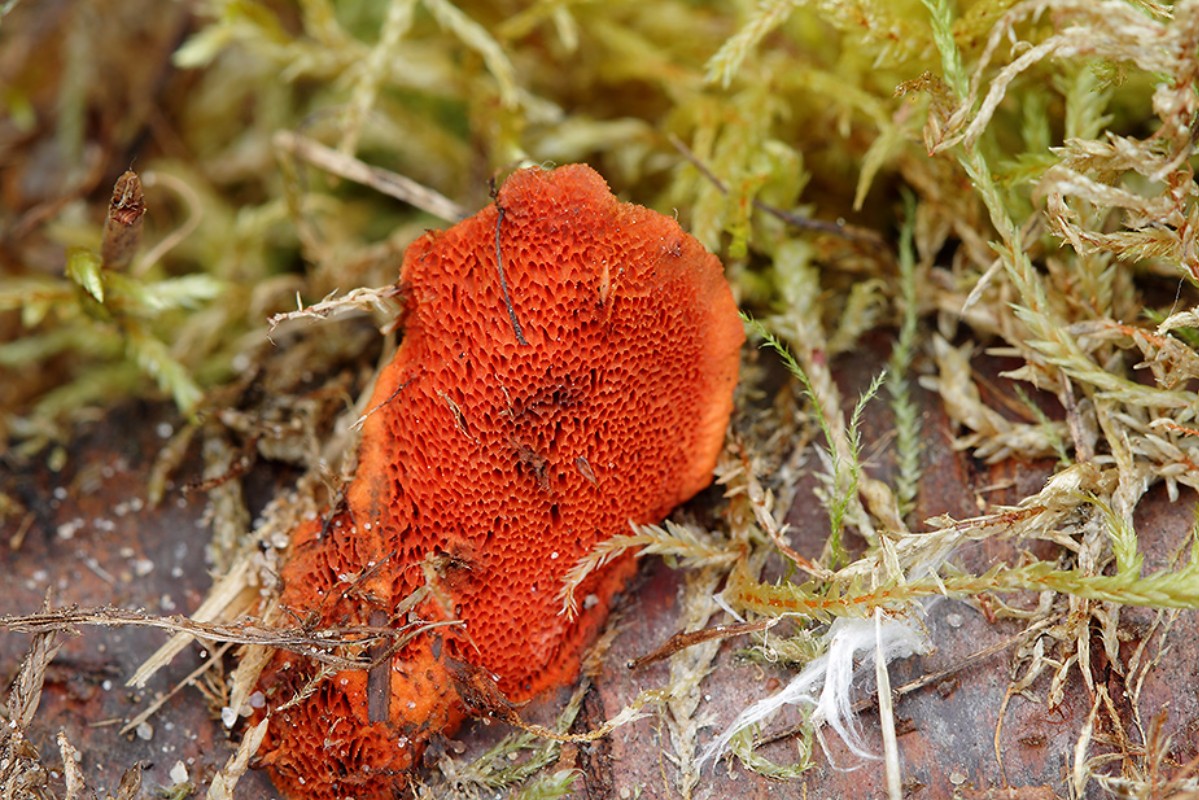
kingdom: Fungi
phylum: Basidiomycota
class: Agaricomycetes
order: Polyporales
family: Polyporaceae
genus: Trametes
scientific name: Trametes cinnabarina
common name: cinnoberporesvamp
